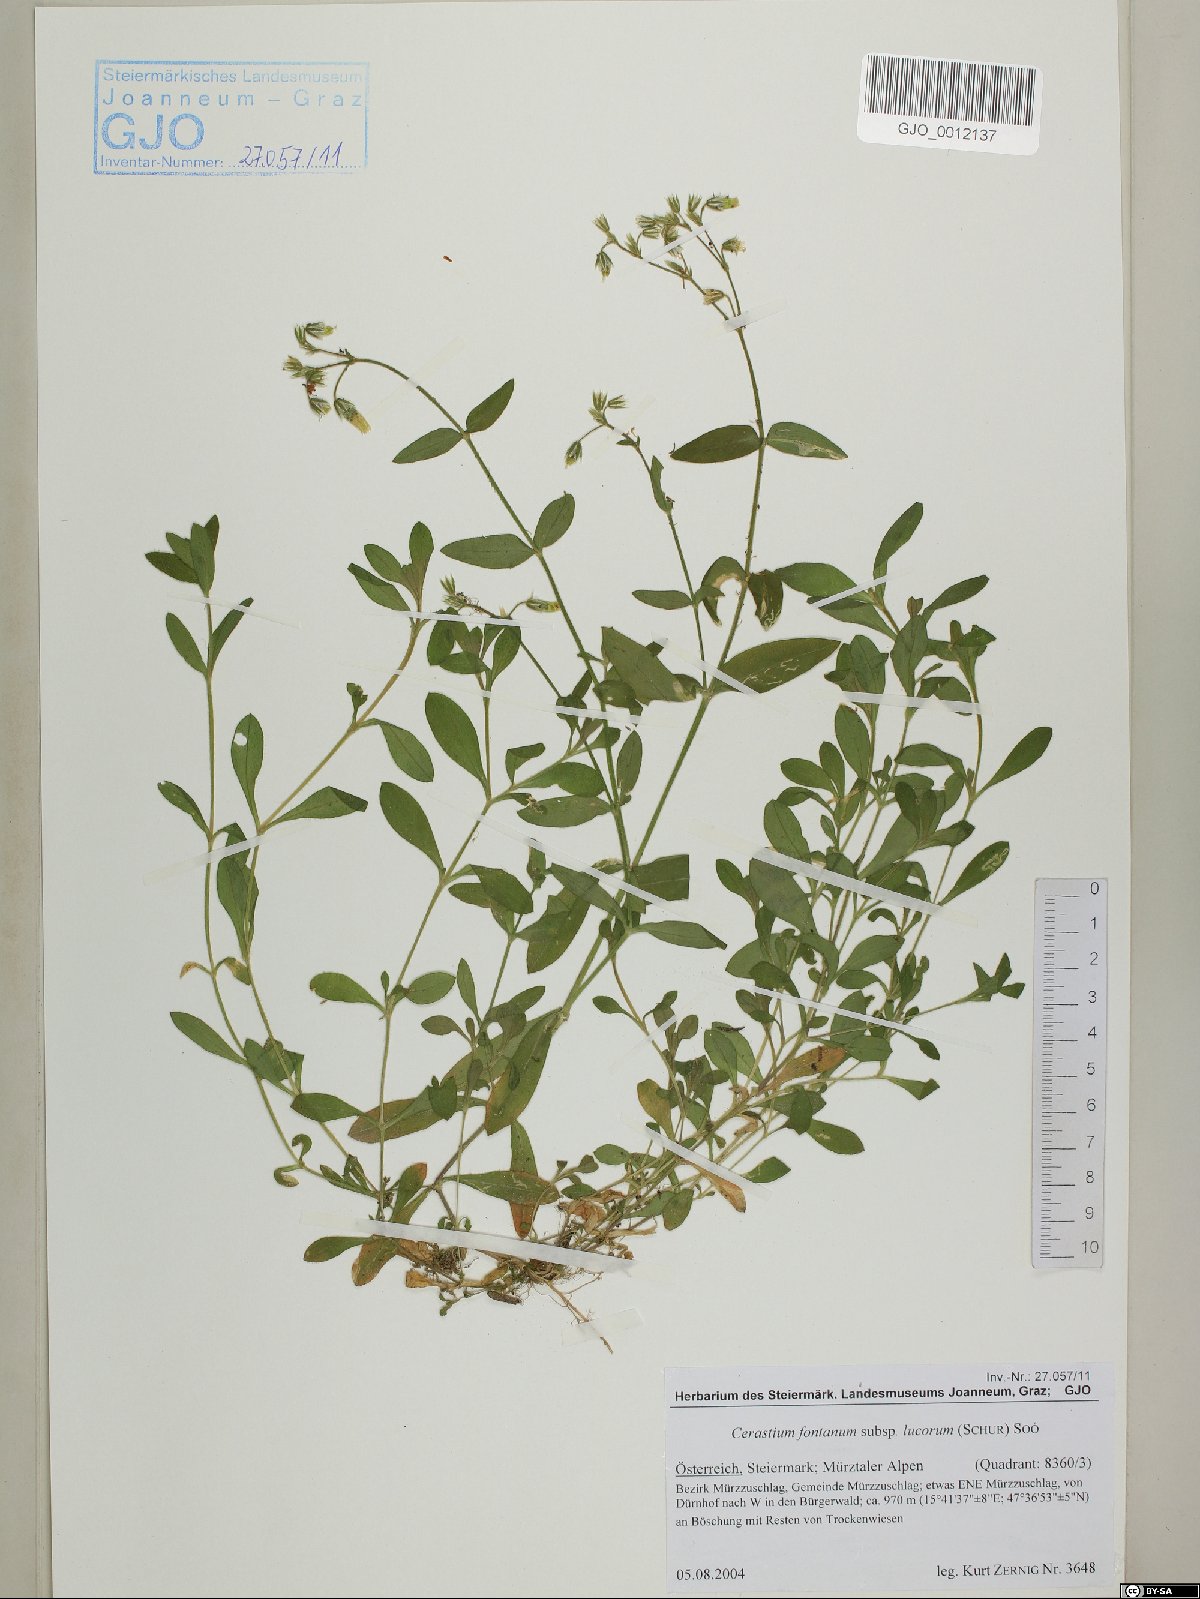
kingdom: Plantae
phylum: Tracheophyta
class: Magnoliopsida
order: Caryophyllales
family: Caryophyllaceae
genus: Cerastium
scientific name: Cerastium lucorum
